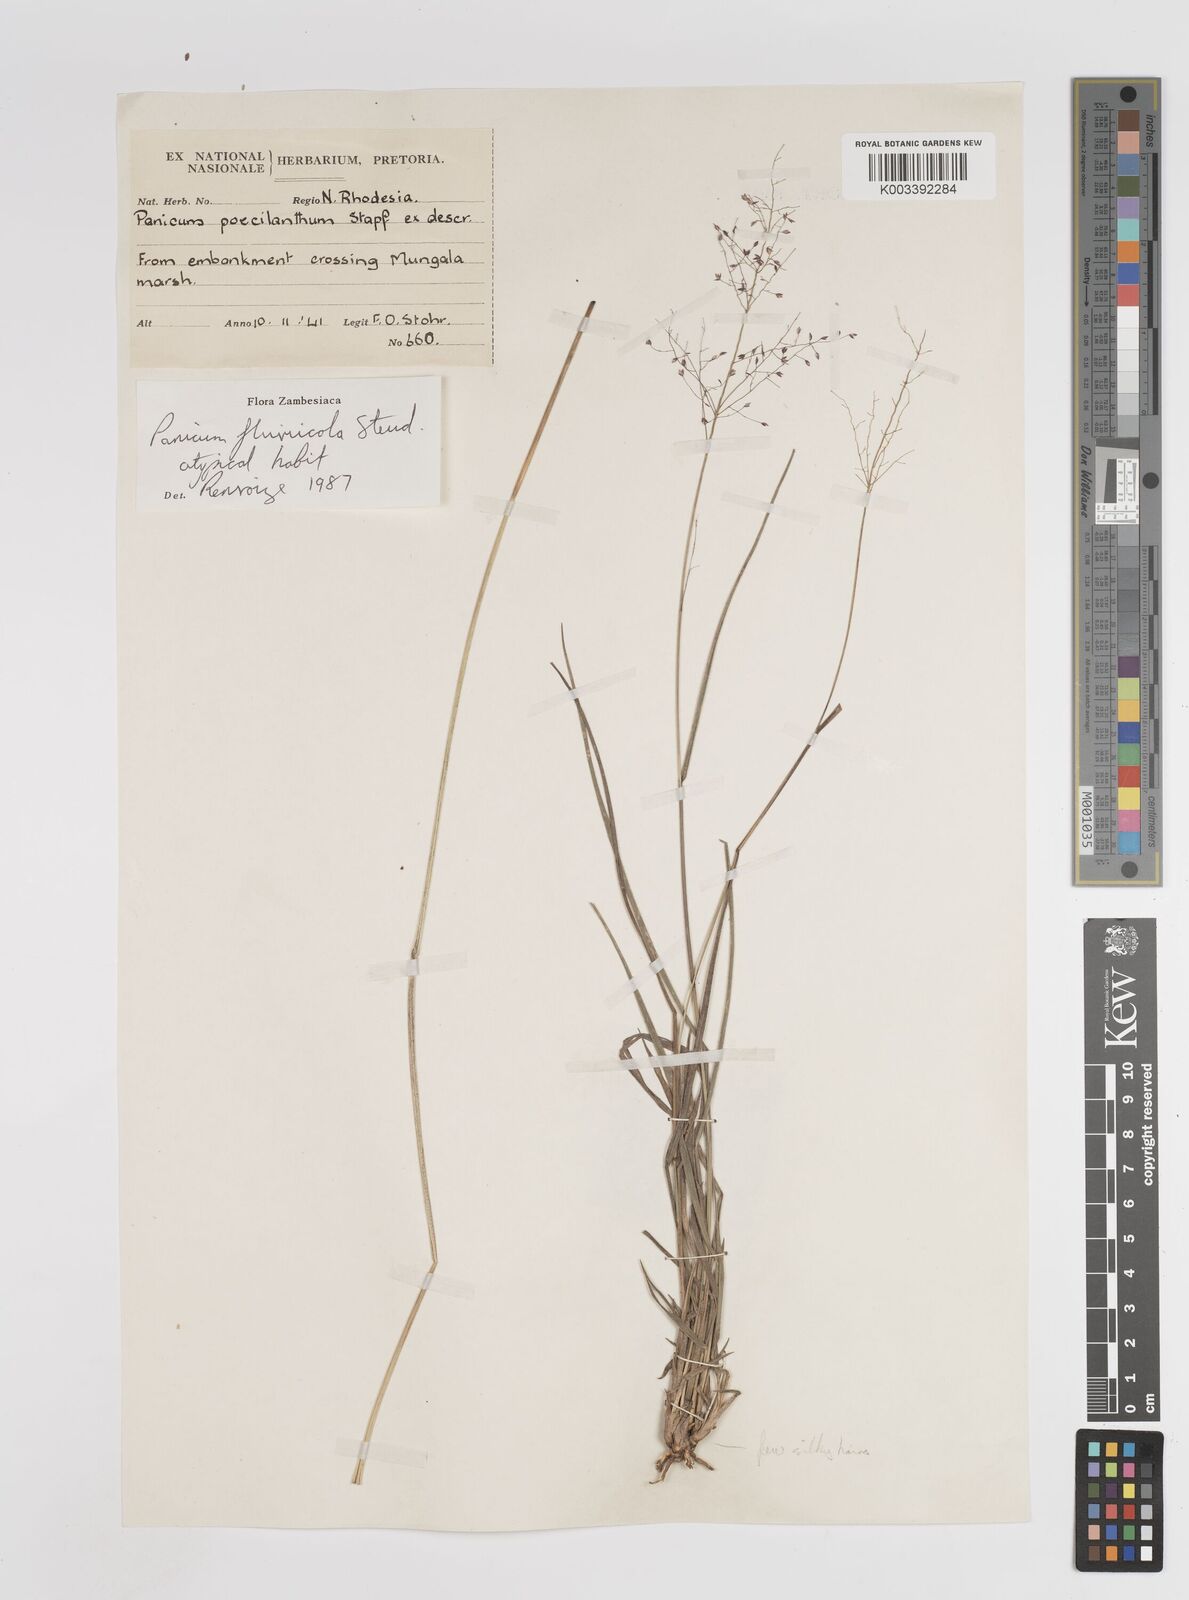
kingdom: Plantae
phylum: Tracheophyta
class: Liliopsida
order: Poales
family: Poaceae
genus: Panicum
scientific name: Panicum fluviicola
